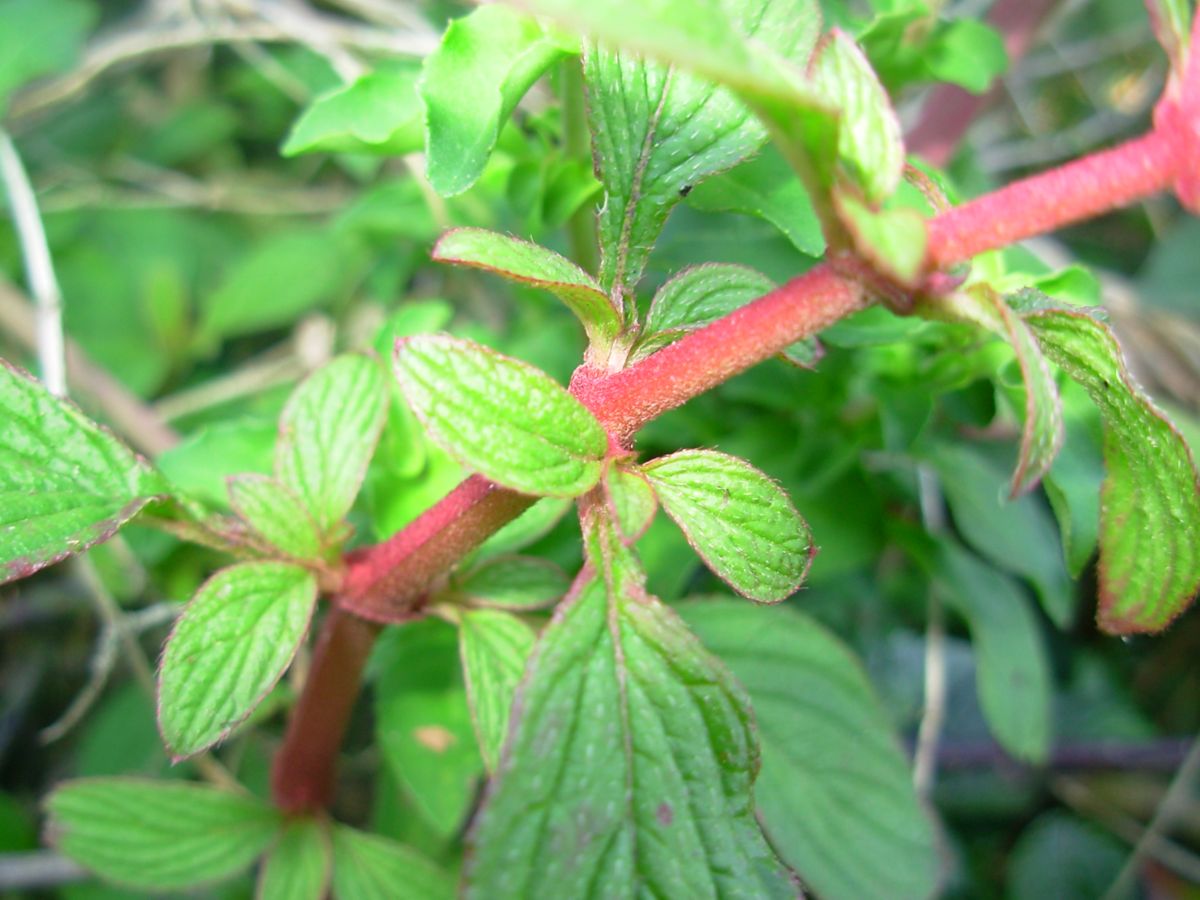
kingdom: Plantae
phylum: Tracheophyta
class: Magnoliopsida
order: Myrtales
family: Melastomataceae
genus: Heterocentron
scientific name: Heterocentron subtriplinervium
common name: Pearl flower
